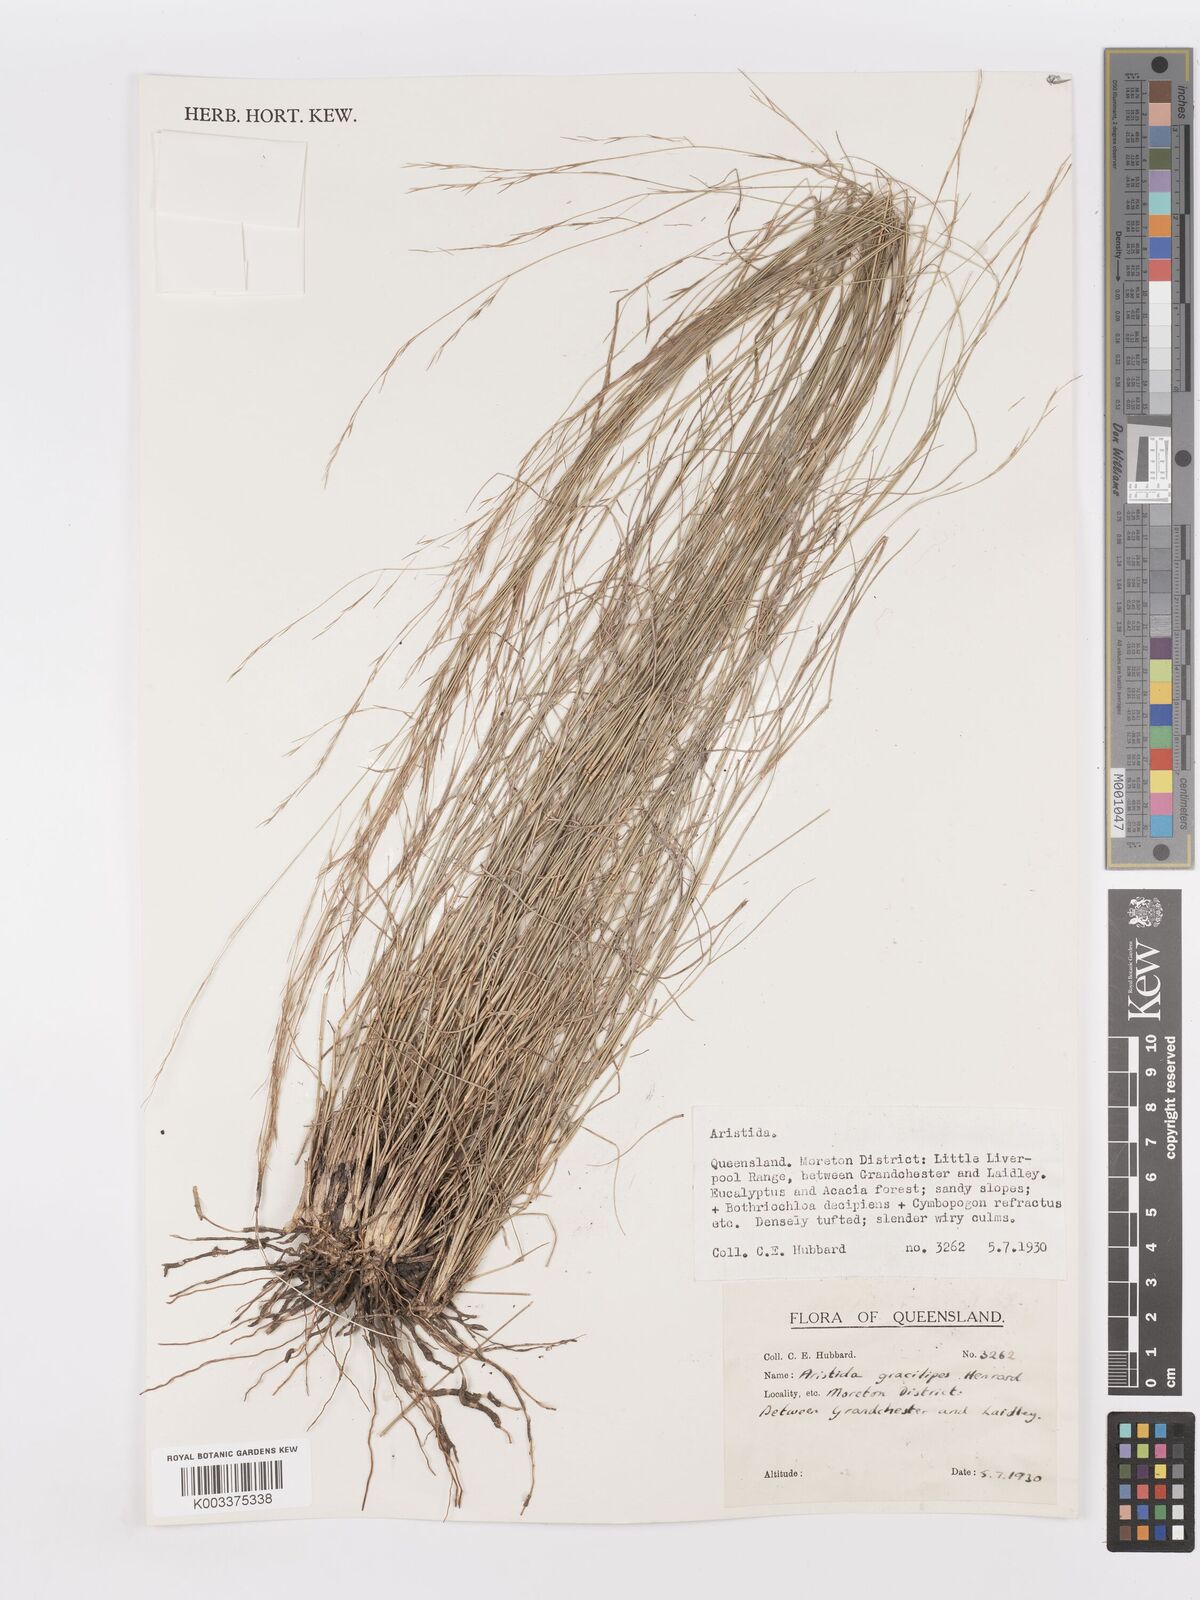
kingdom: Plantae
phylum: Tracheophyta
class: Liliopsida
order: Poales
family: Poaceae
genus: Aristida
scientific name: Aristida gracilipes
